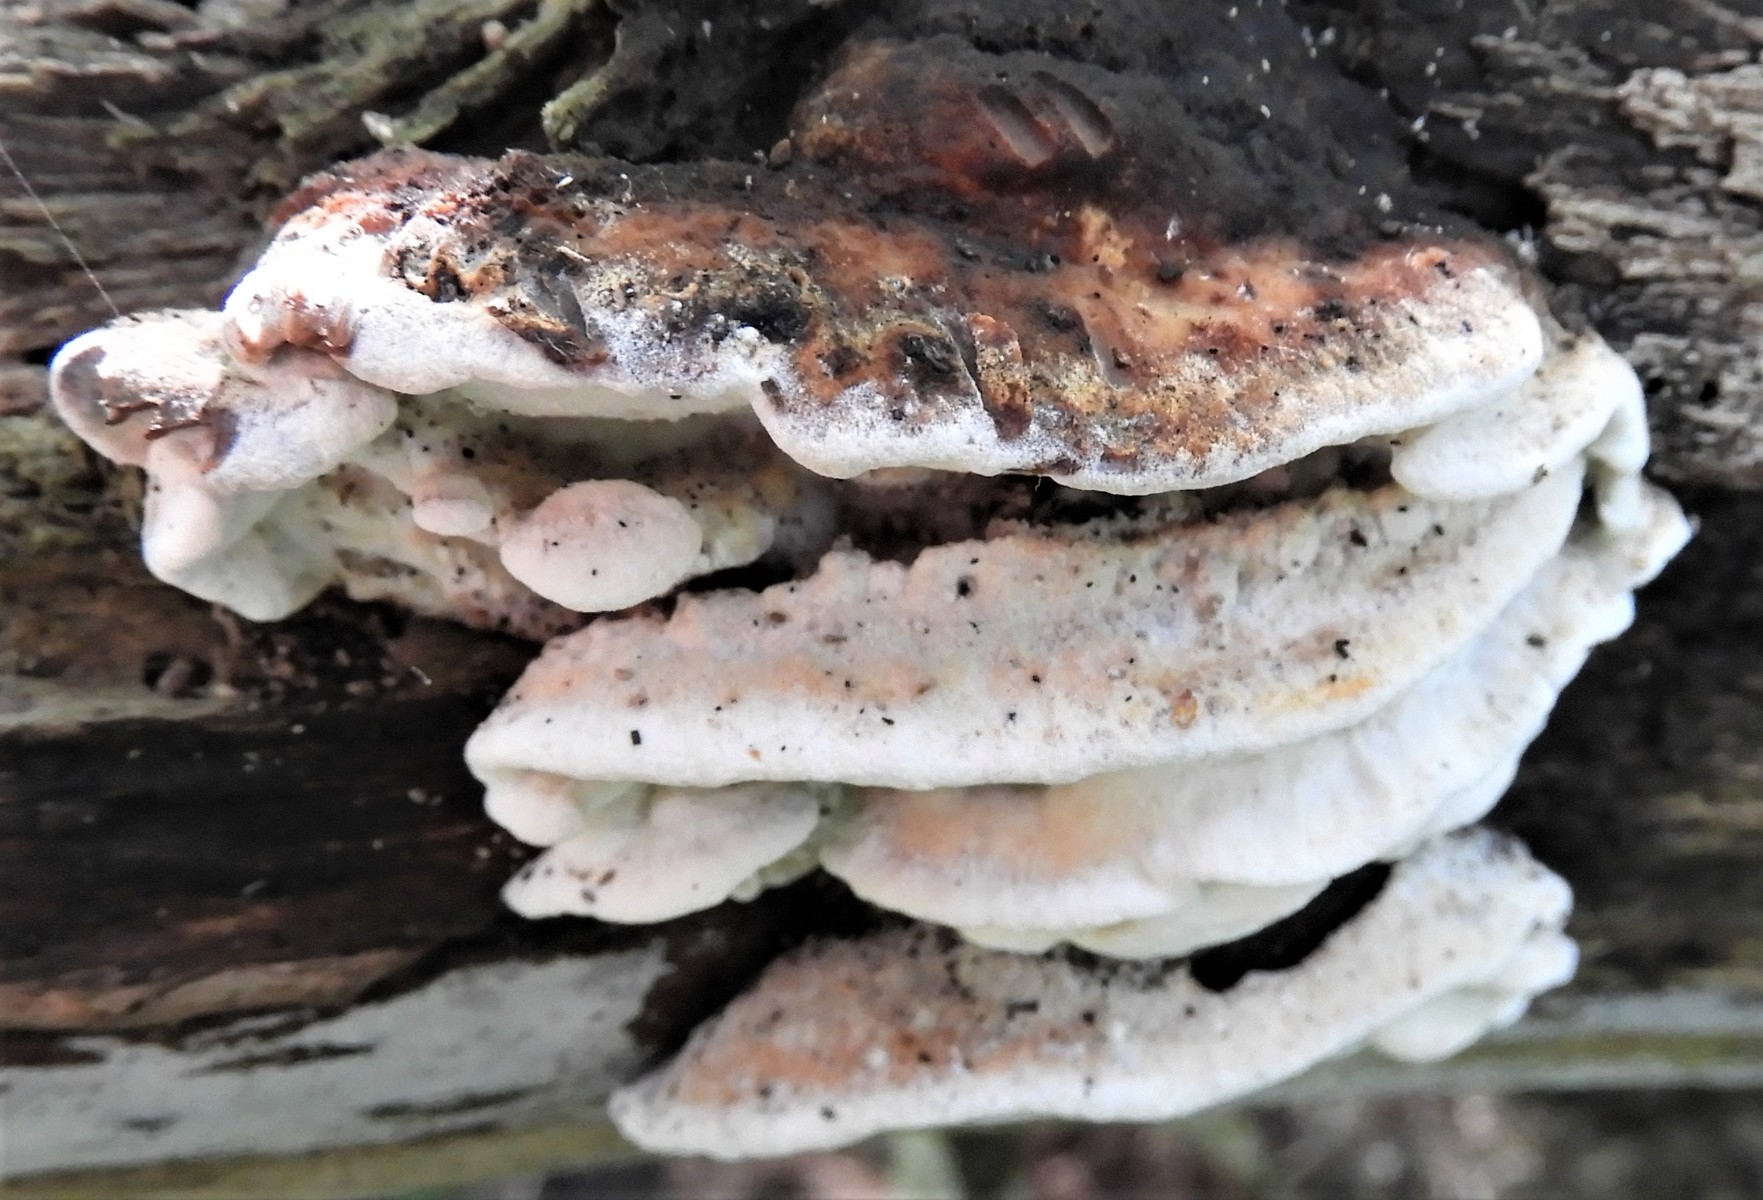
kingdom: Fungi
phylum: Basidiomycota
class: Agaricomycetes
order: Polyporales
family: Incrustoporiaceae
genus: Skeletocutis
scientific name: Skeletocutis nemoralis
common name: stor krystalporesvamp
